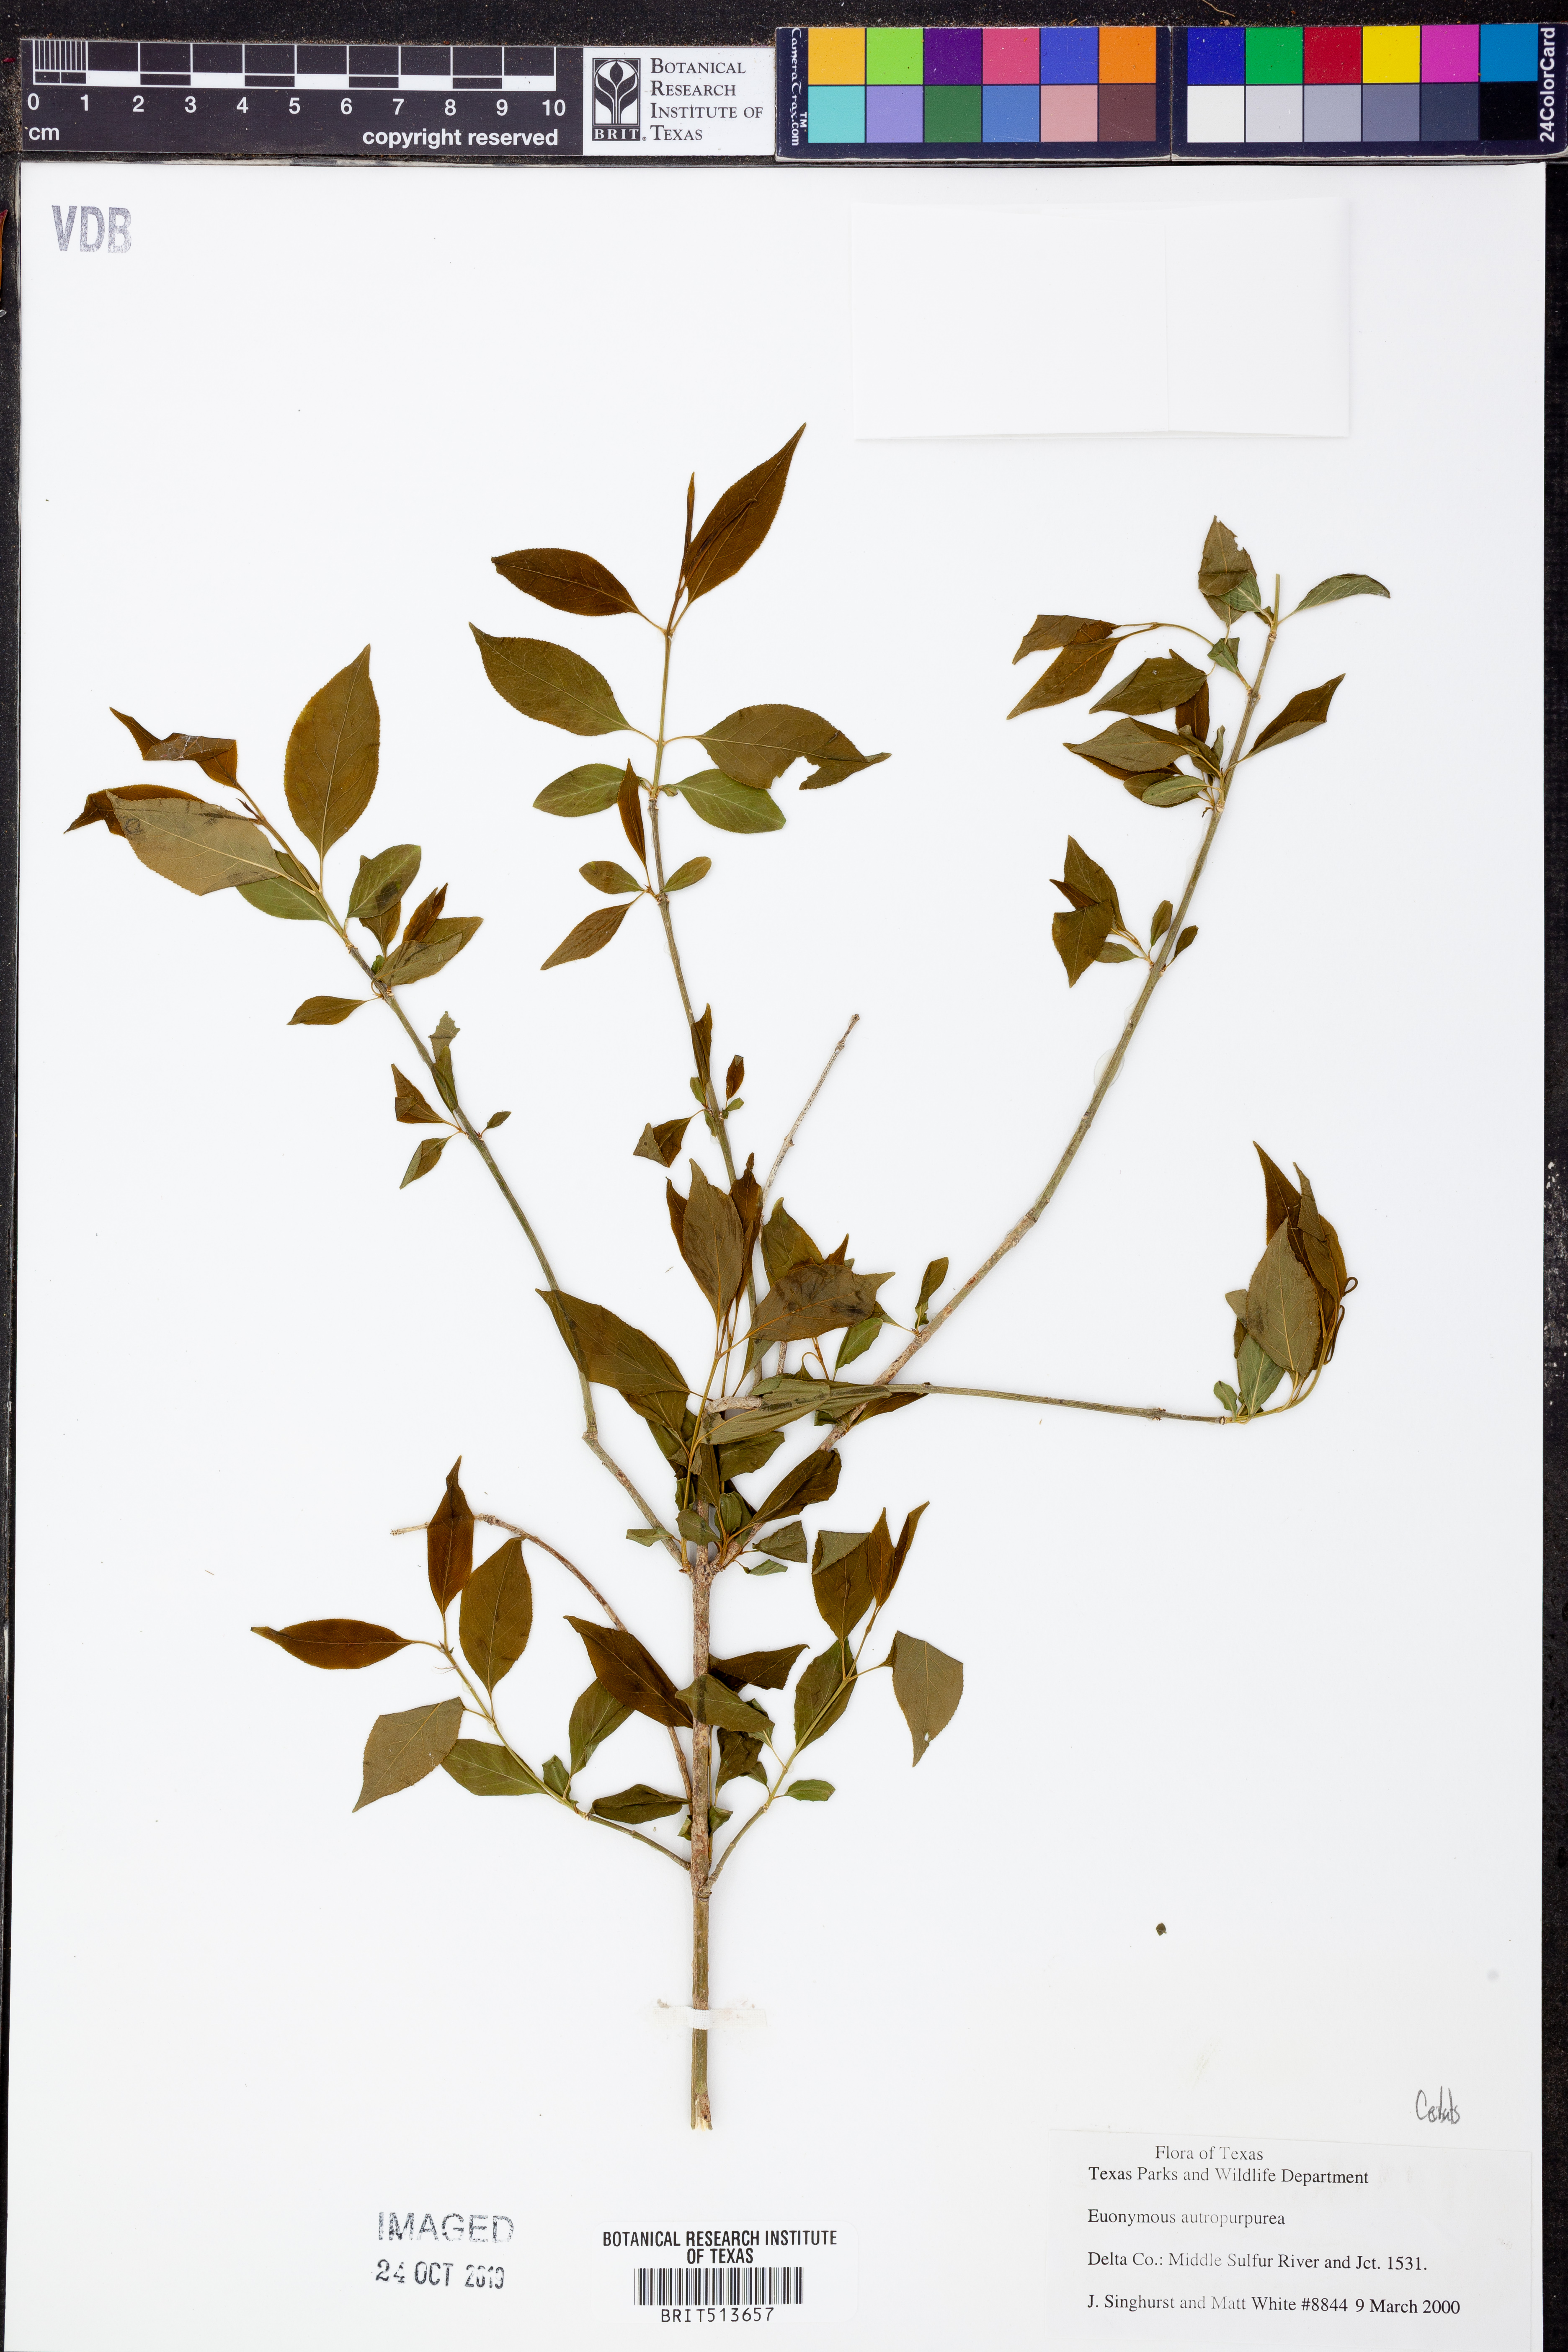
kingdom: Plantae
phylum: Tracheophyta
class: Magnoliopsida
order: Celastrales
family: Celastraceae
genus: Euonymus
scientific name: Euonymus atropurpureus
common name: Eastern wahoo
